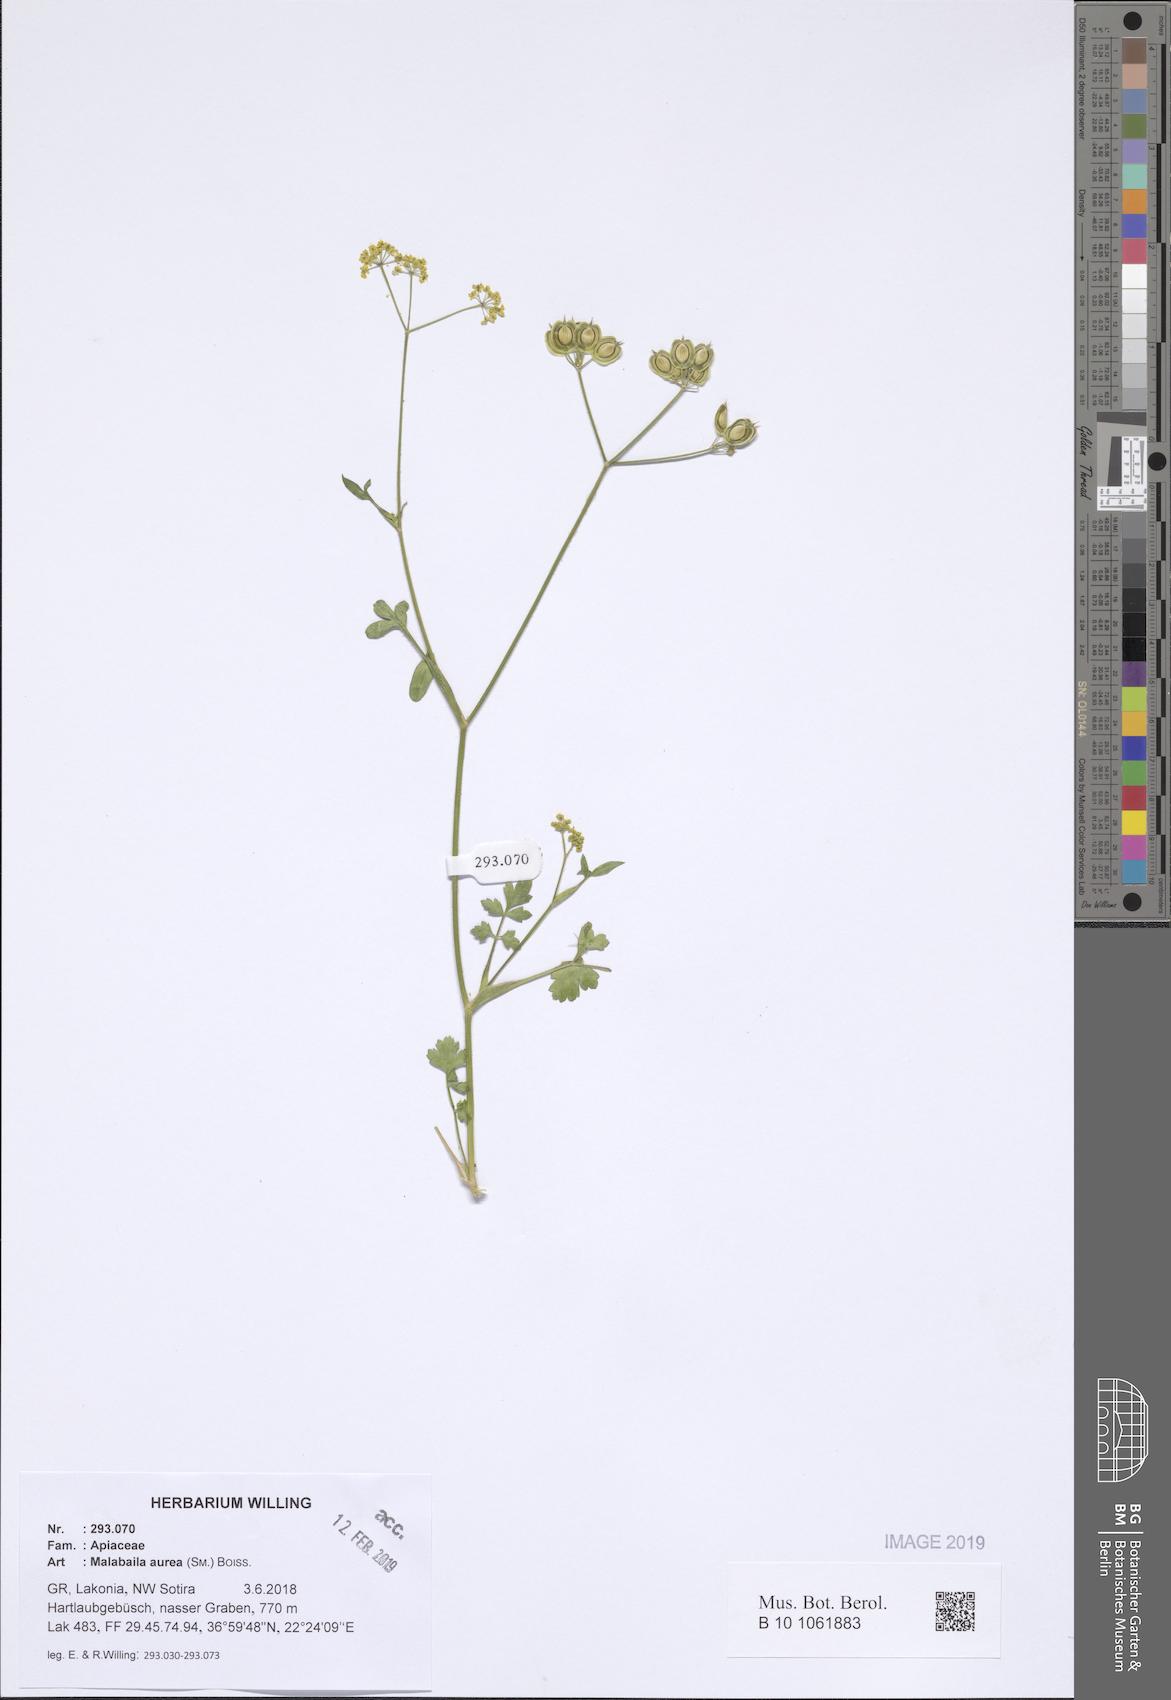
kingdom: Plantae
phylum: Tracheophyta
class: Magnoliopsida
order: Apiales
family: Apiaceae
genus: Leiotulus
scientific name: Leiotulus aureus
